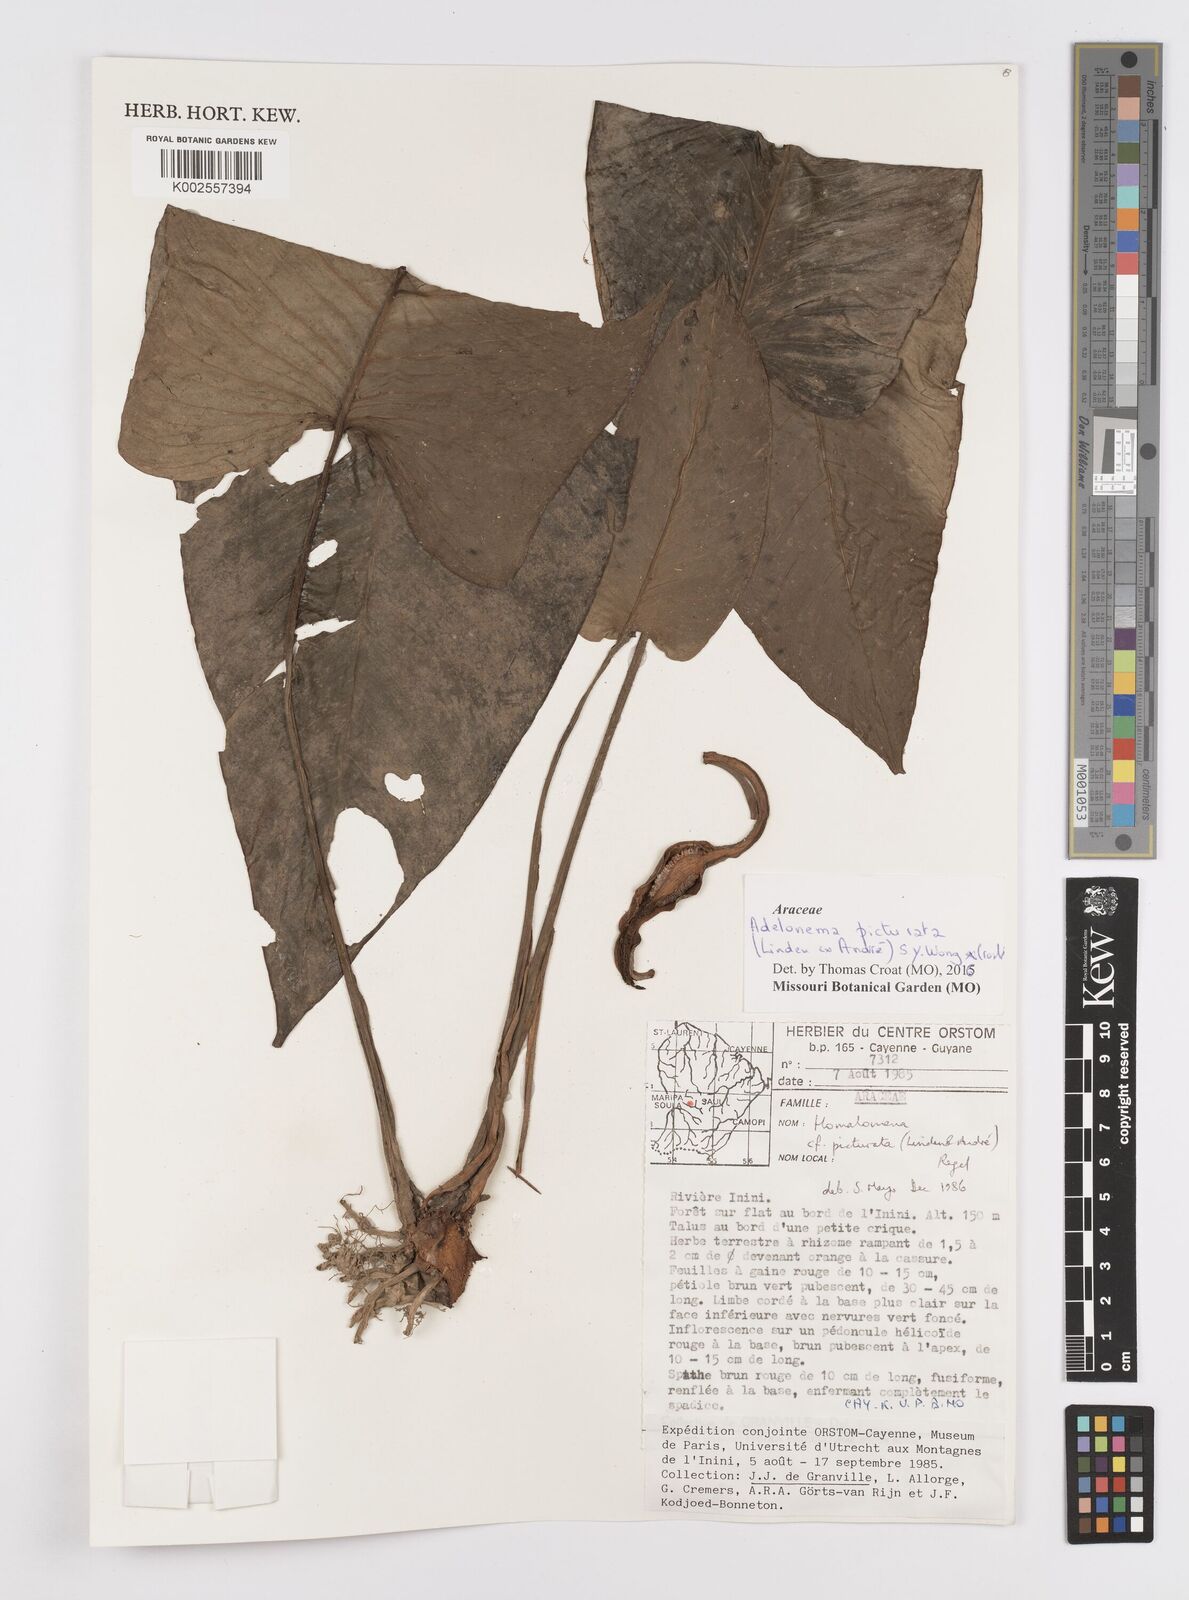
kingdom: Plantae
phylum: Tracheophyta
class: Liliopsida
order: Alismatales
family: Araceae
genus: Adelonema
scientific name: Adelonema picturatum
